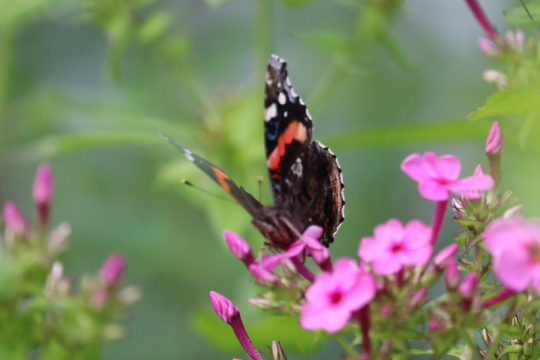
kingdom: Animalia
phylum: Arthropoda
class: Insecta
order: Lepidoptera
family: Nymphalidae
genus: Vanessa
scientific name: Vanessa atalanta
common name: Red Admiral
